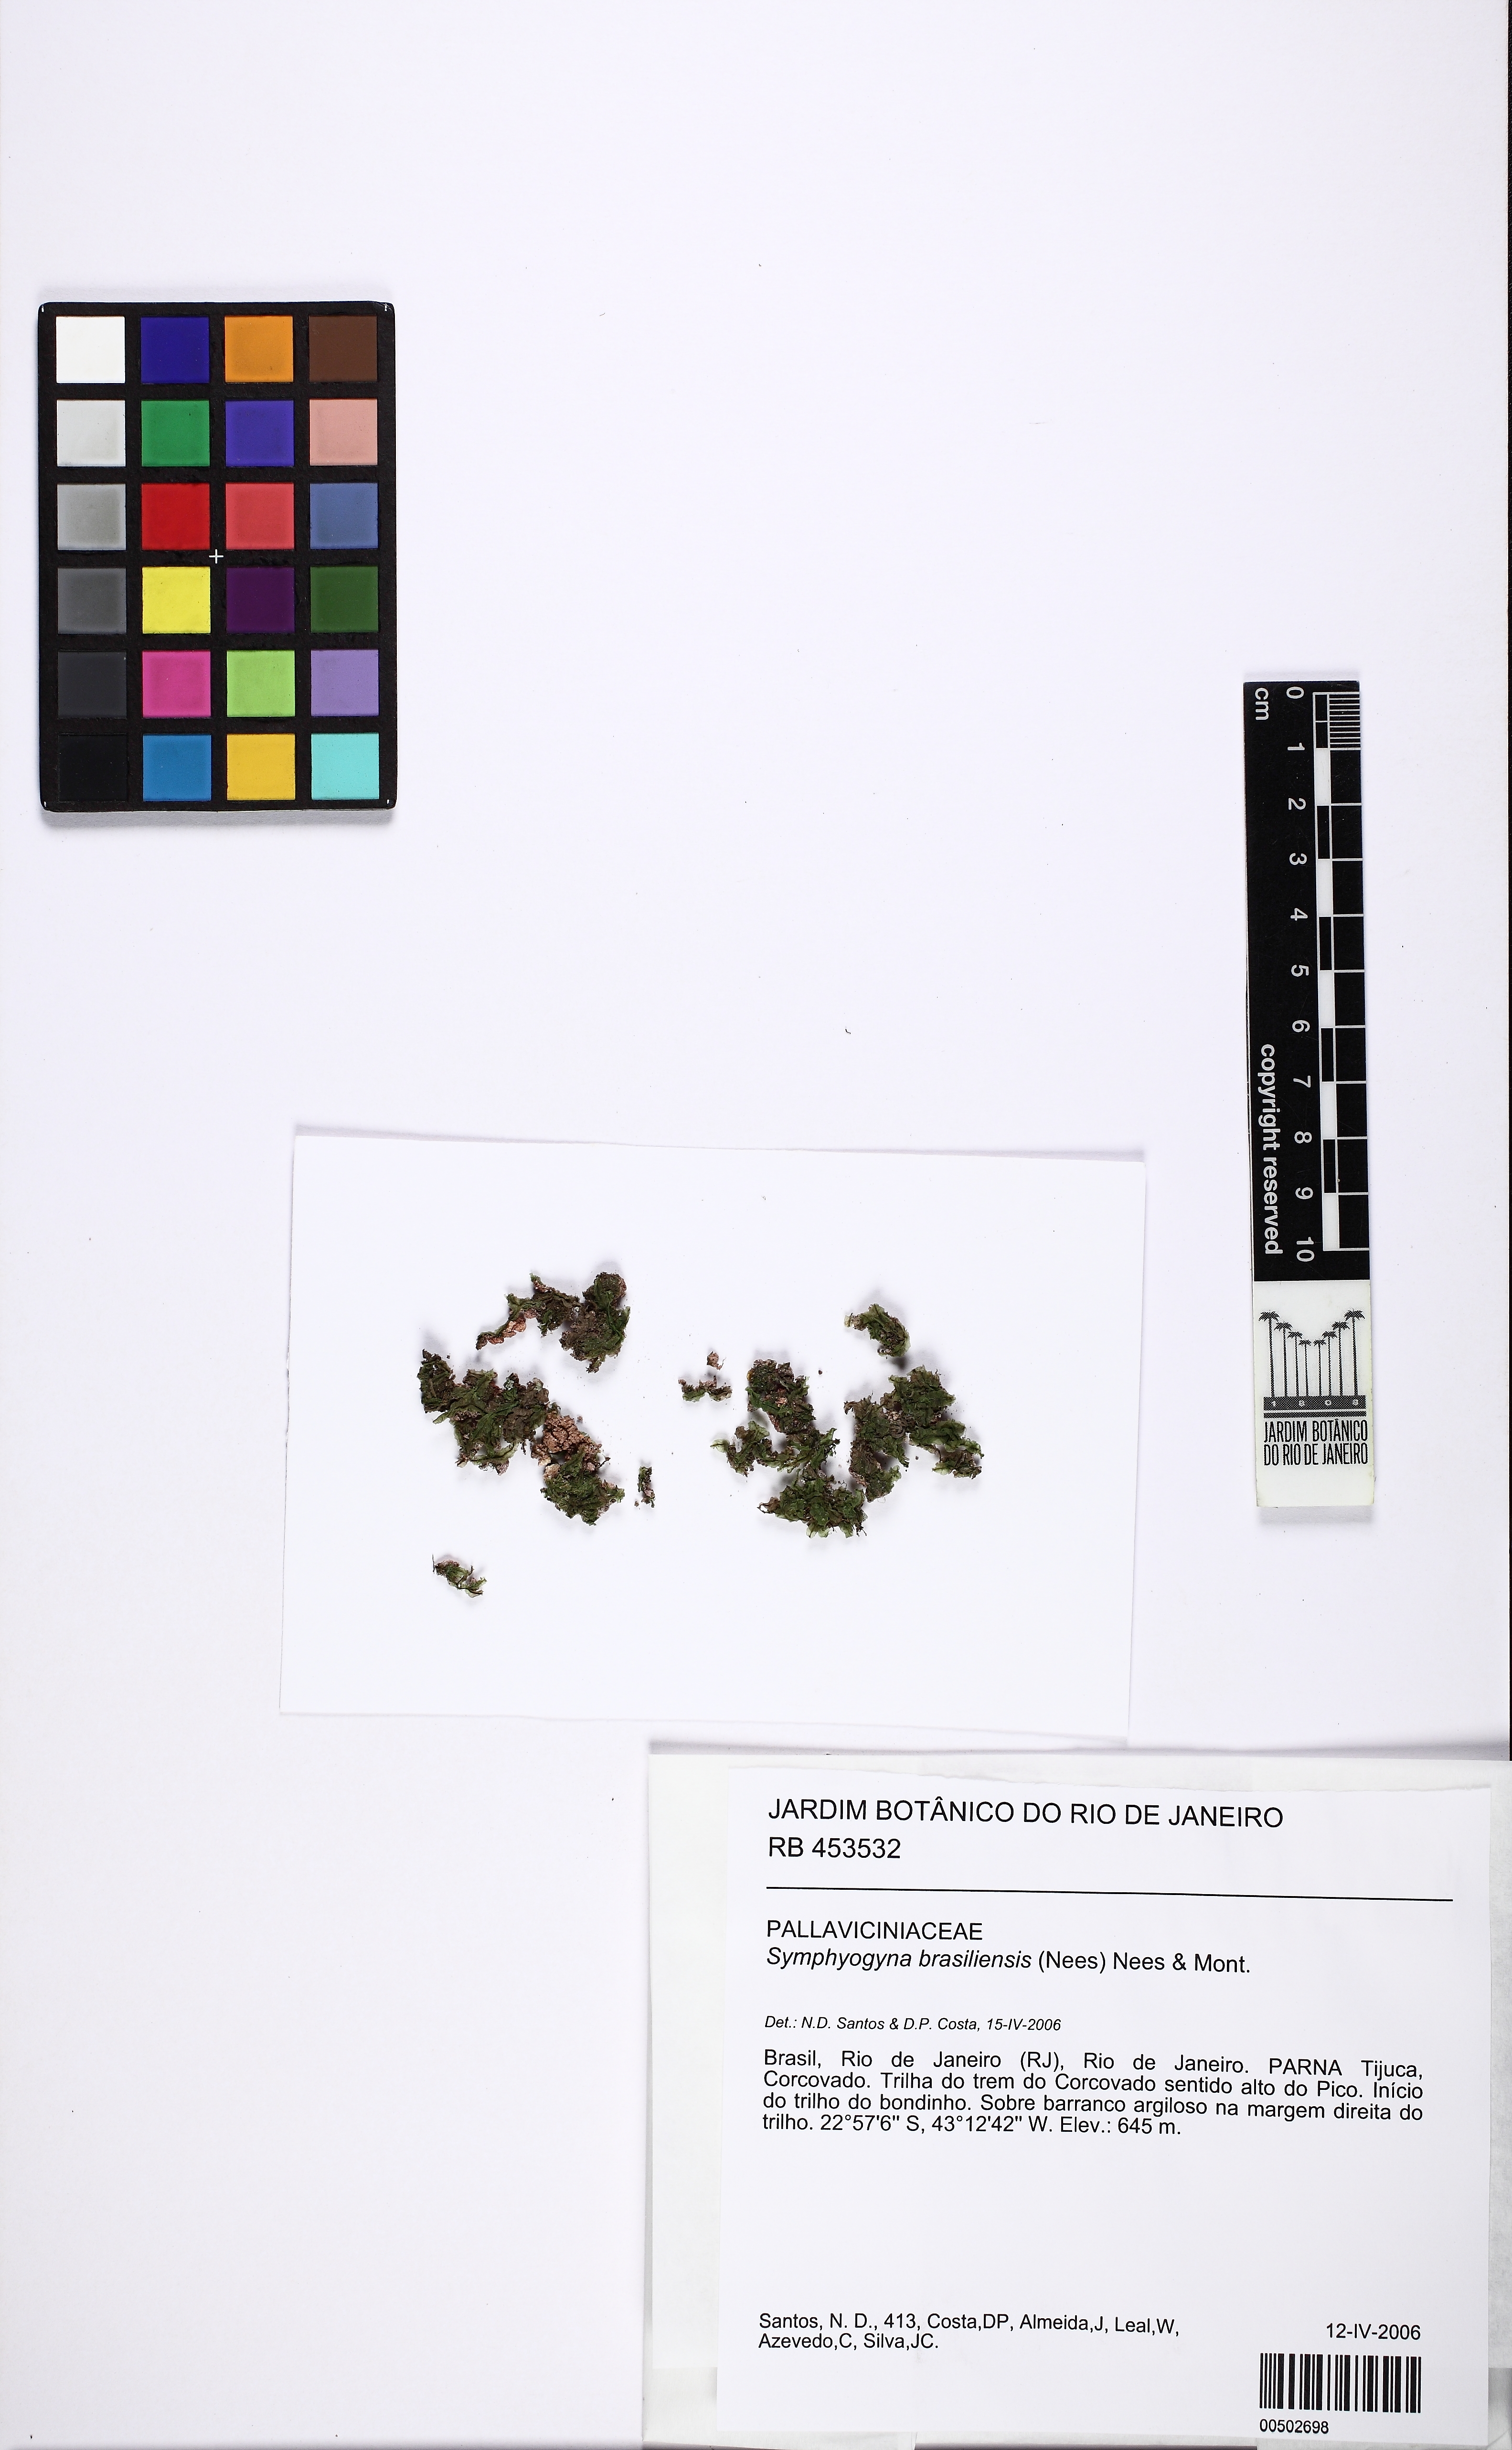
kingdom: Plantae
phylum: Marchantiophyta
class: Jungermanniopsida
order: Pallaviciniales
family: Pallaviciniaceae
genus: Symphyogyna
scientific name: Symphyogyna brasiliensis
